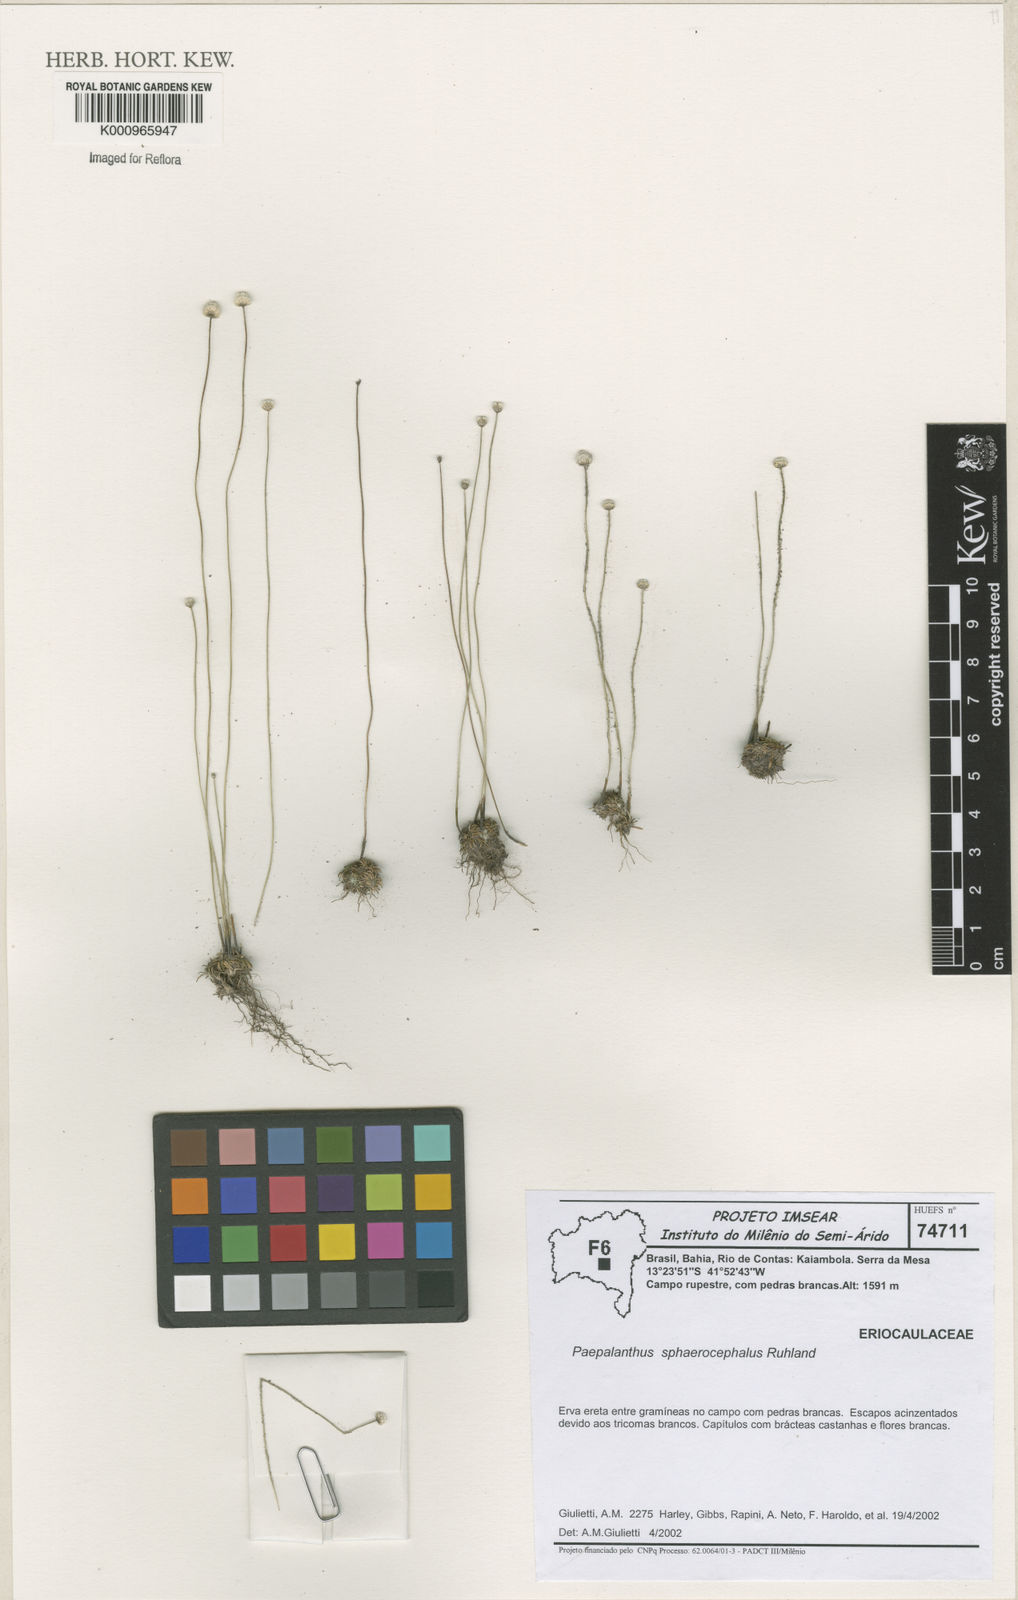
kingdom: Plantae
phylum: Tracheophyta
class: Liliopsida
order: Poales
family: Eriocaulaceae
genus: Paepalanthus
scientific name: Paepalanthus sphaerocephalus
